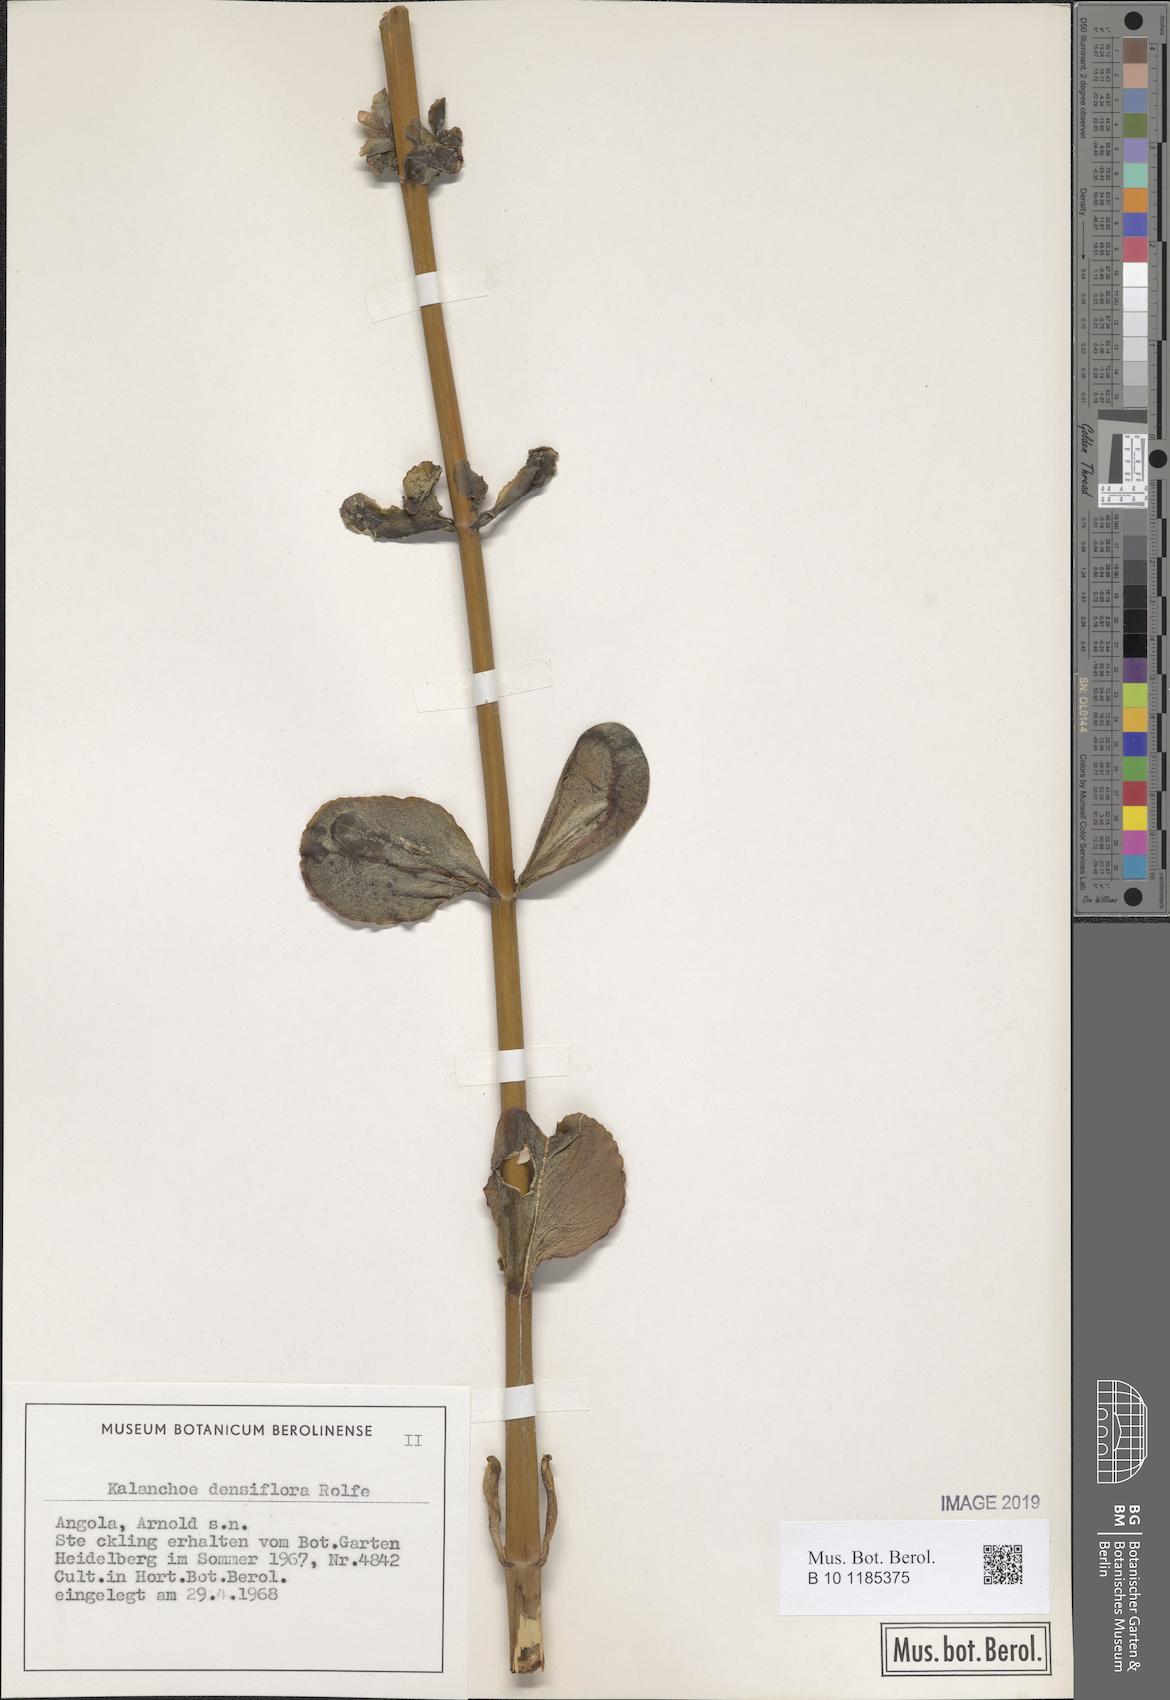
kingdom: Plantae
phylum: Tracheophyta
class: Magnoliopsida
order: Saxifragales
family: Crassulaceae
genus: Kalanchoe
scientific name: Kalanchoe densiflora
